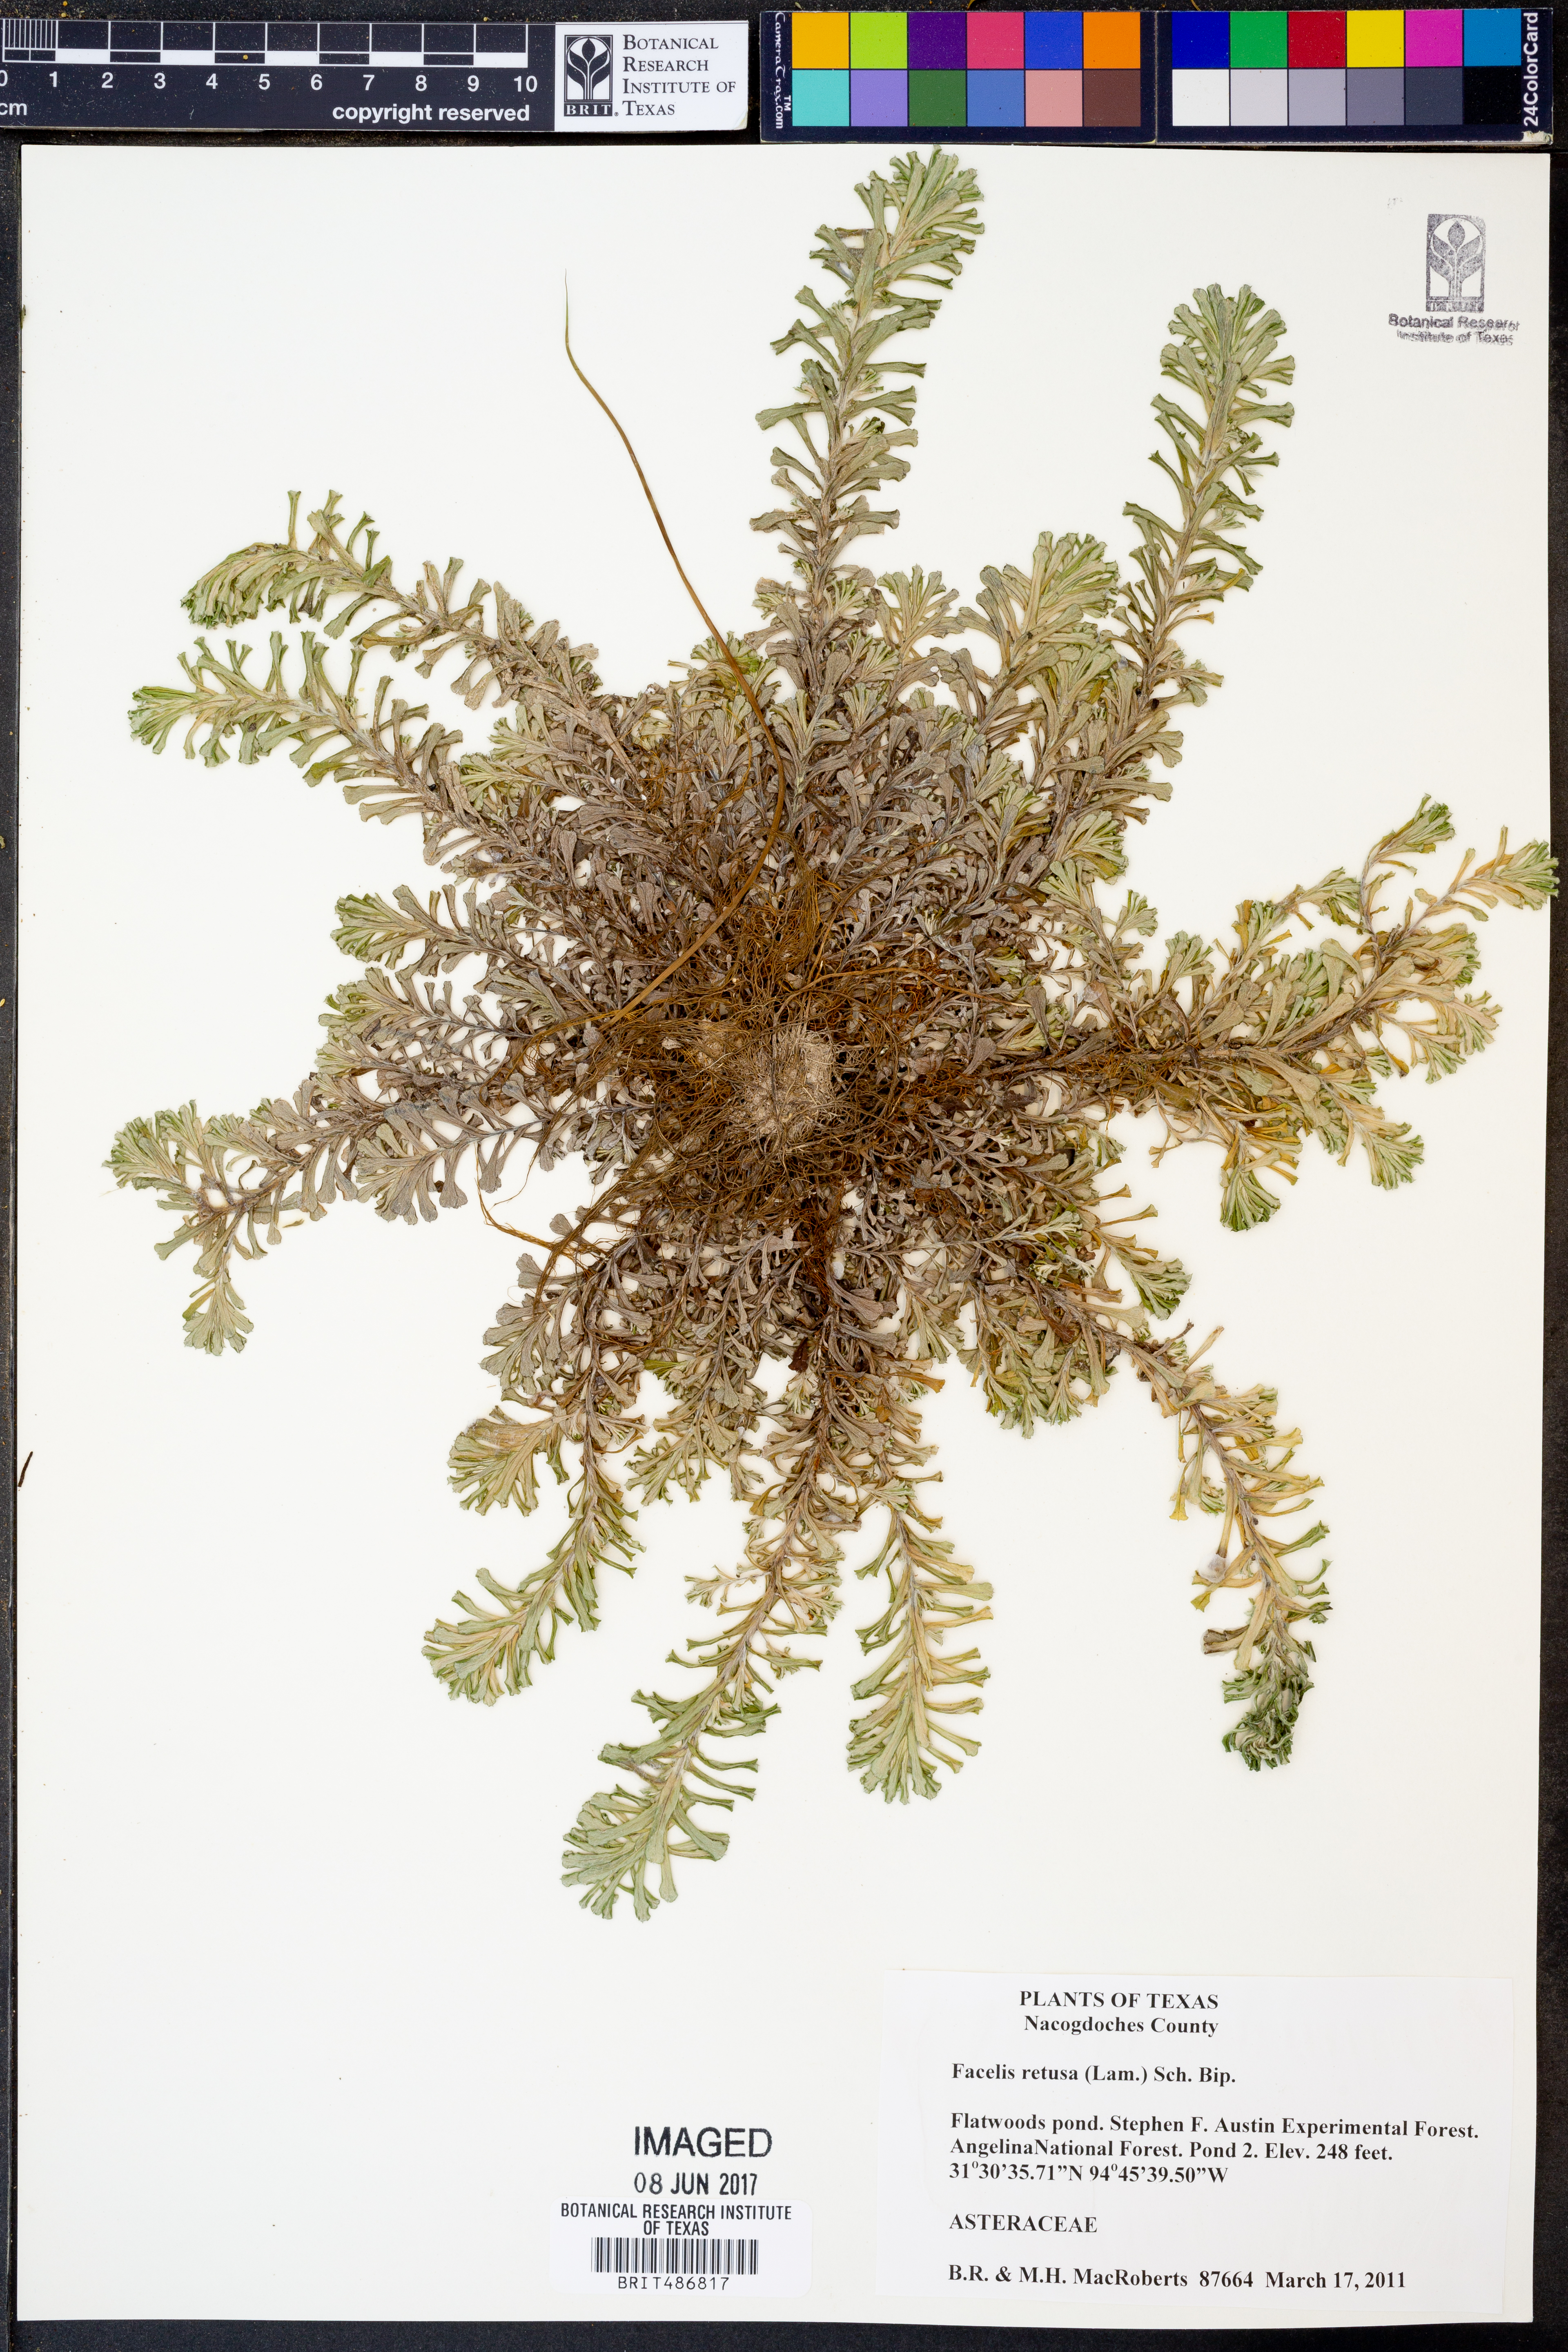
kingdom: Plantae
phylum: Tracheophyta
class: Magnoliopsida
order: Asterales
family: Asteraceae
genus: Facelis
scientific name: Facelis retusa
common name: Annual trampweed
